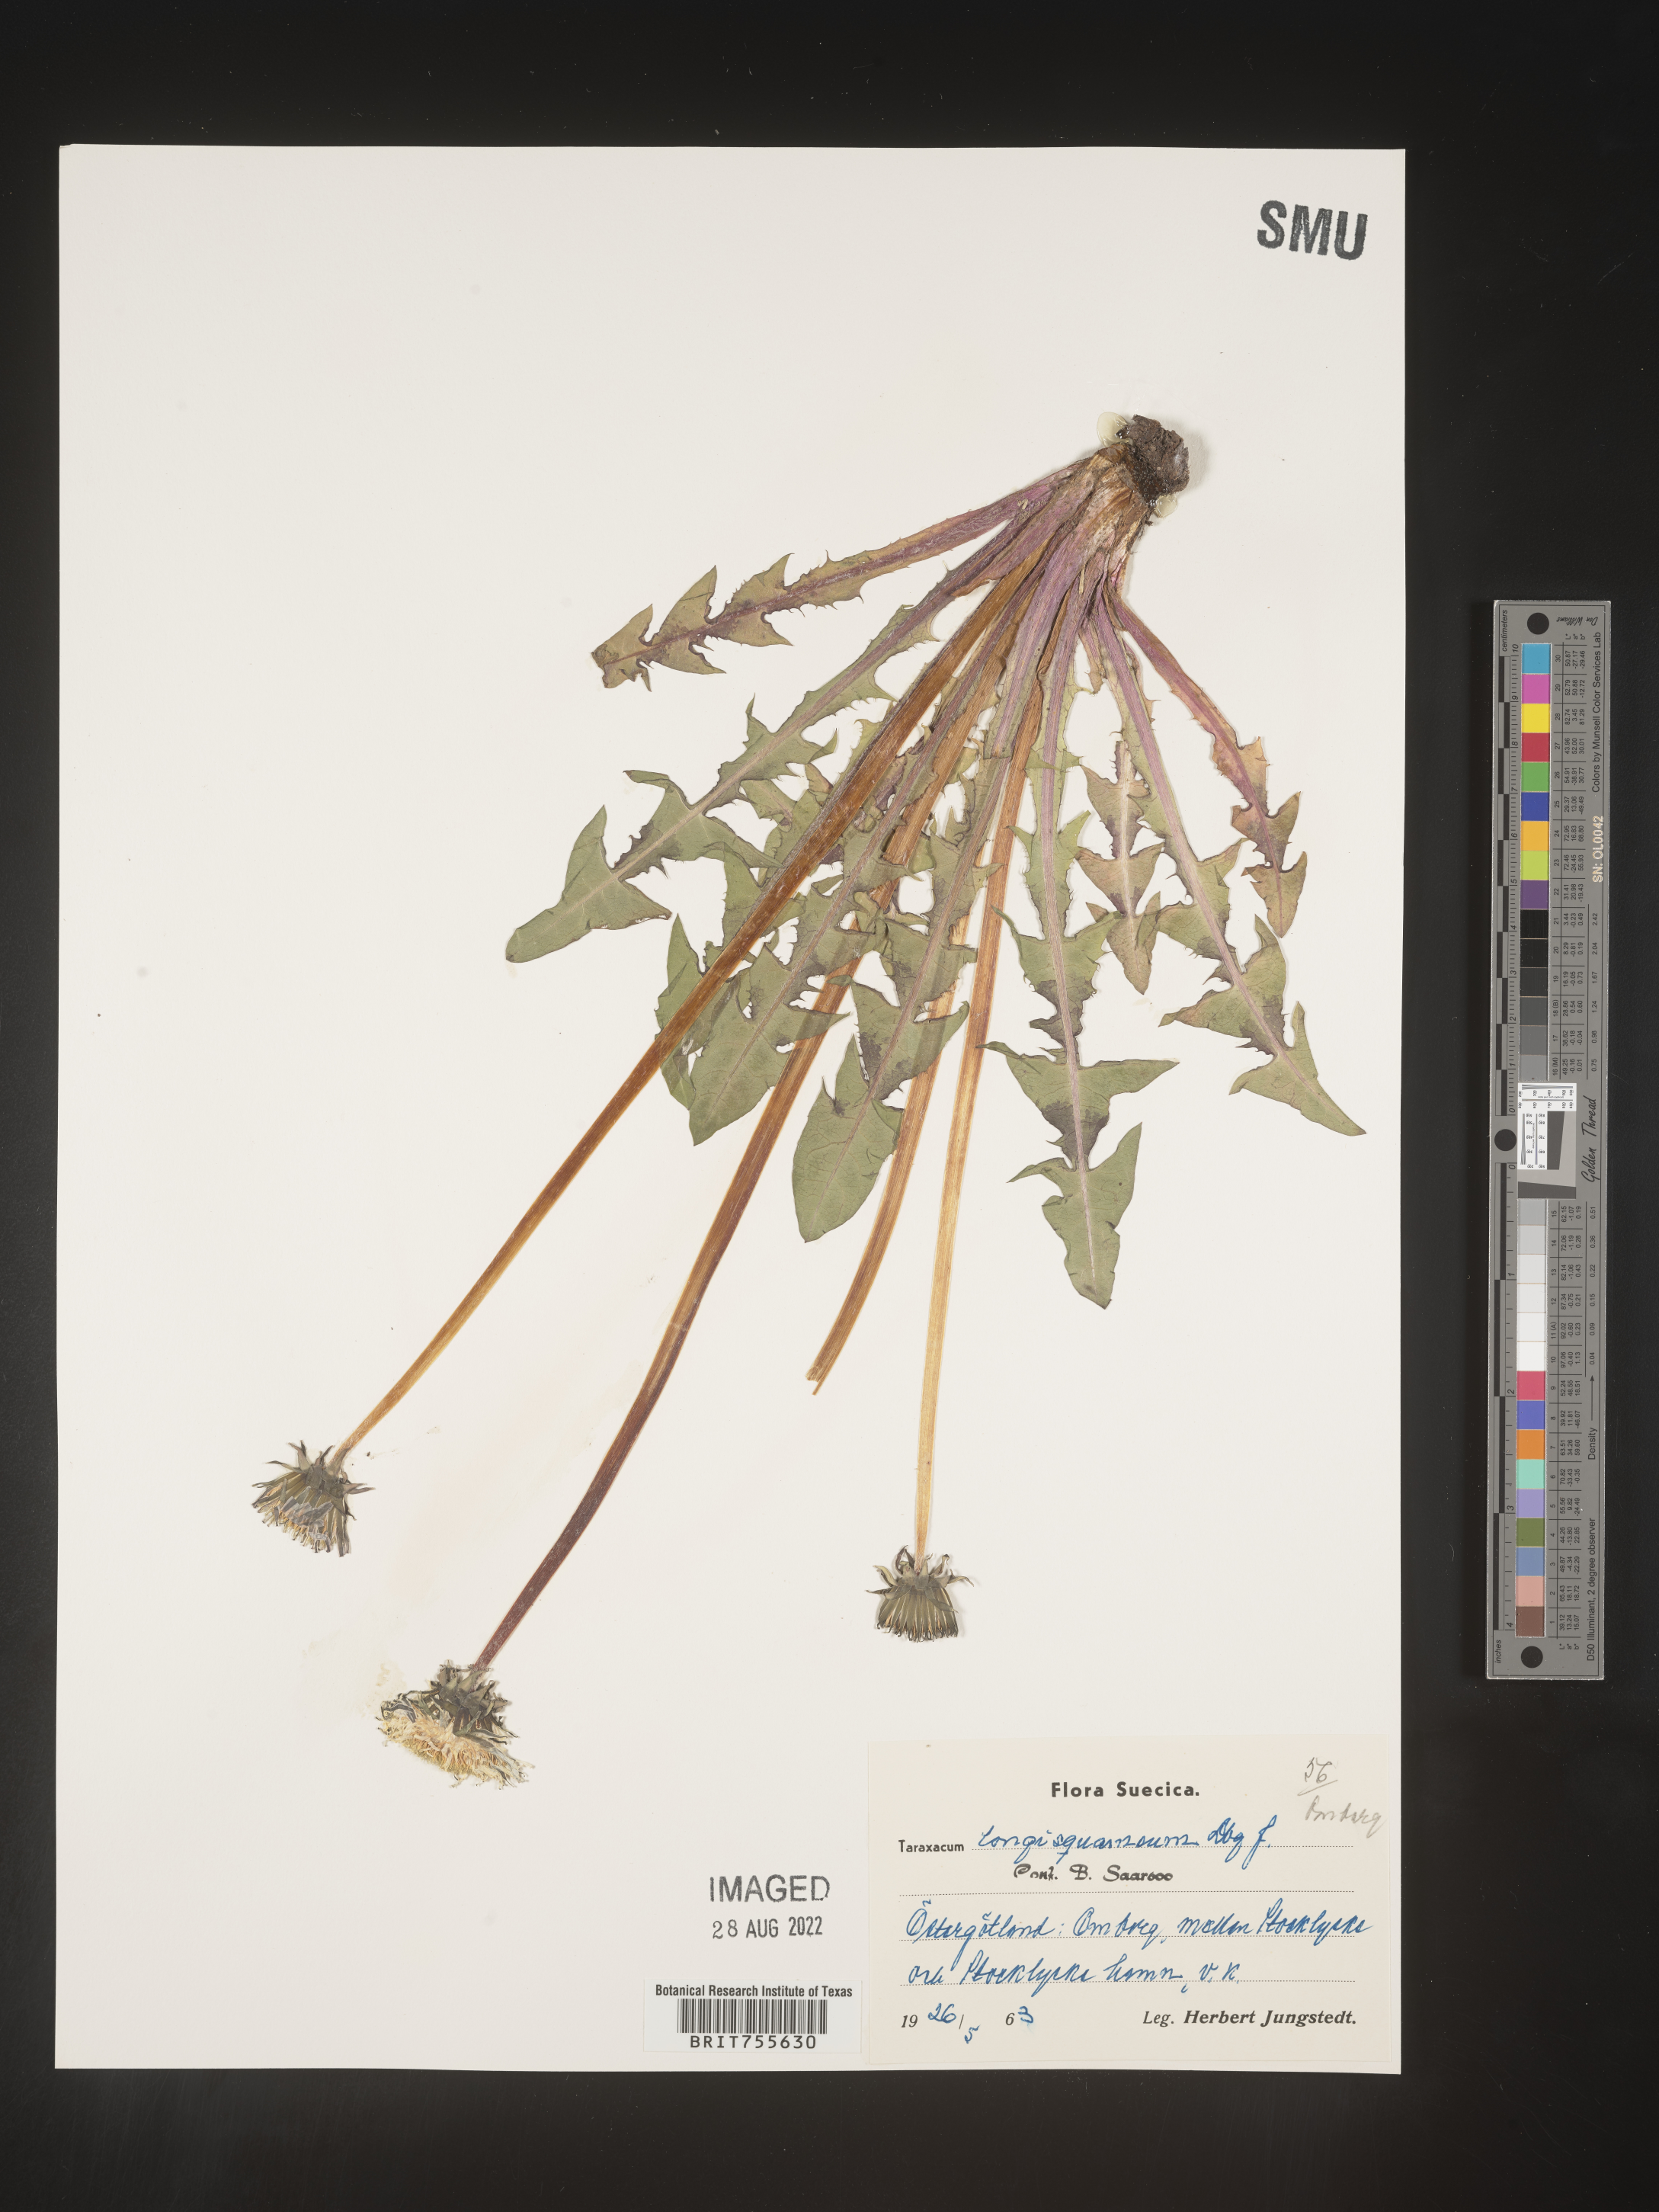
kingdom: Plantae
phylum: Tracheophyta
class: Magnoliopsida
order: Asterales
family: Asteraceae
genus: Taraxacum
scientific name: Taraxacum
